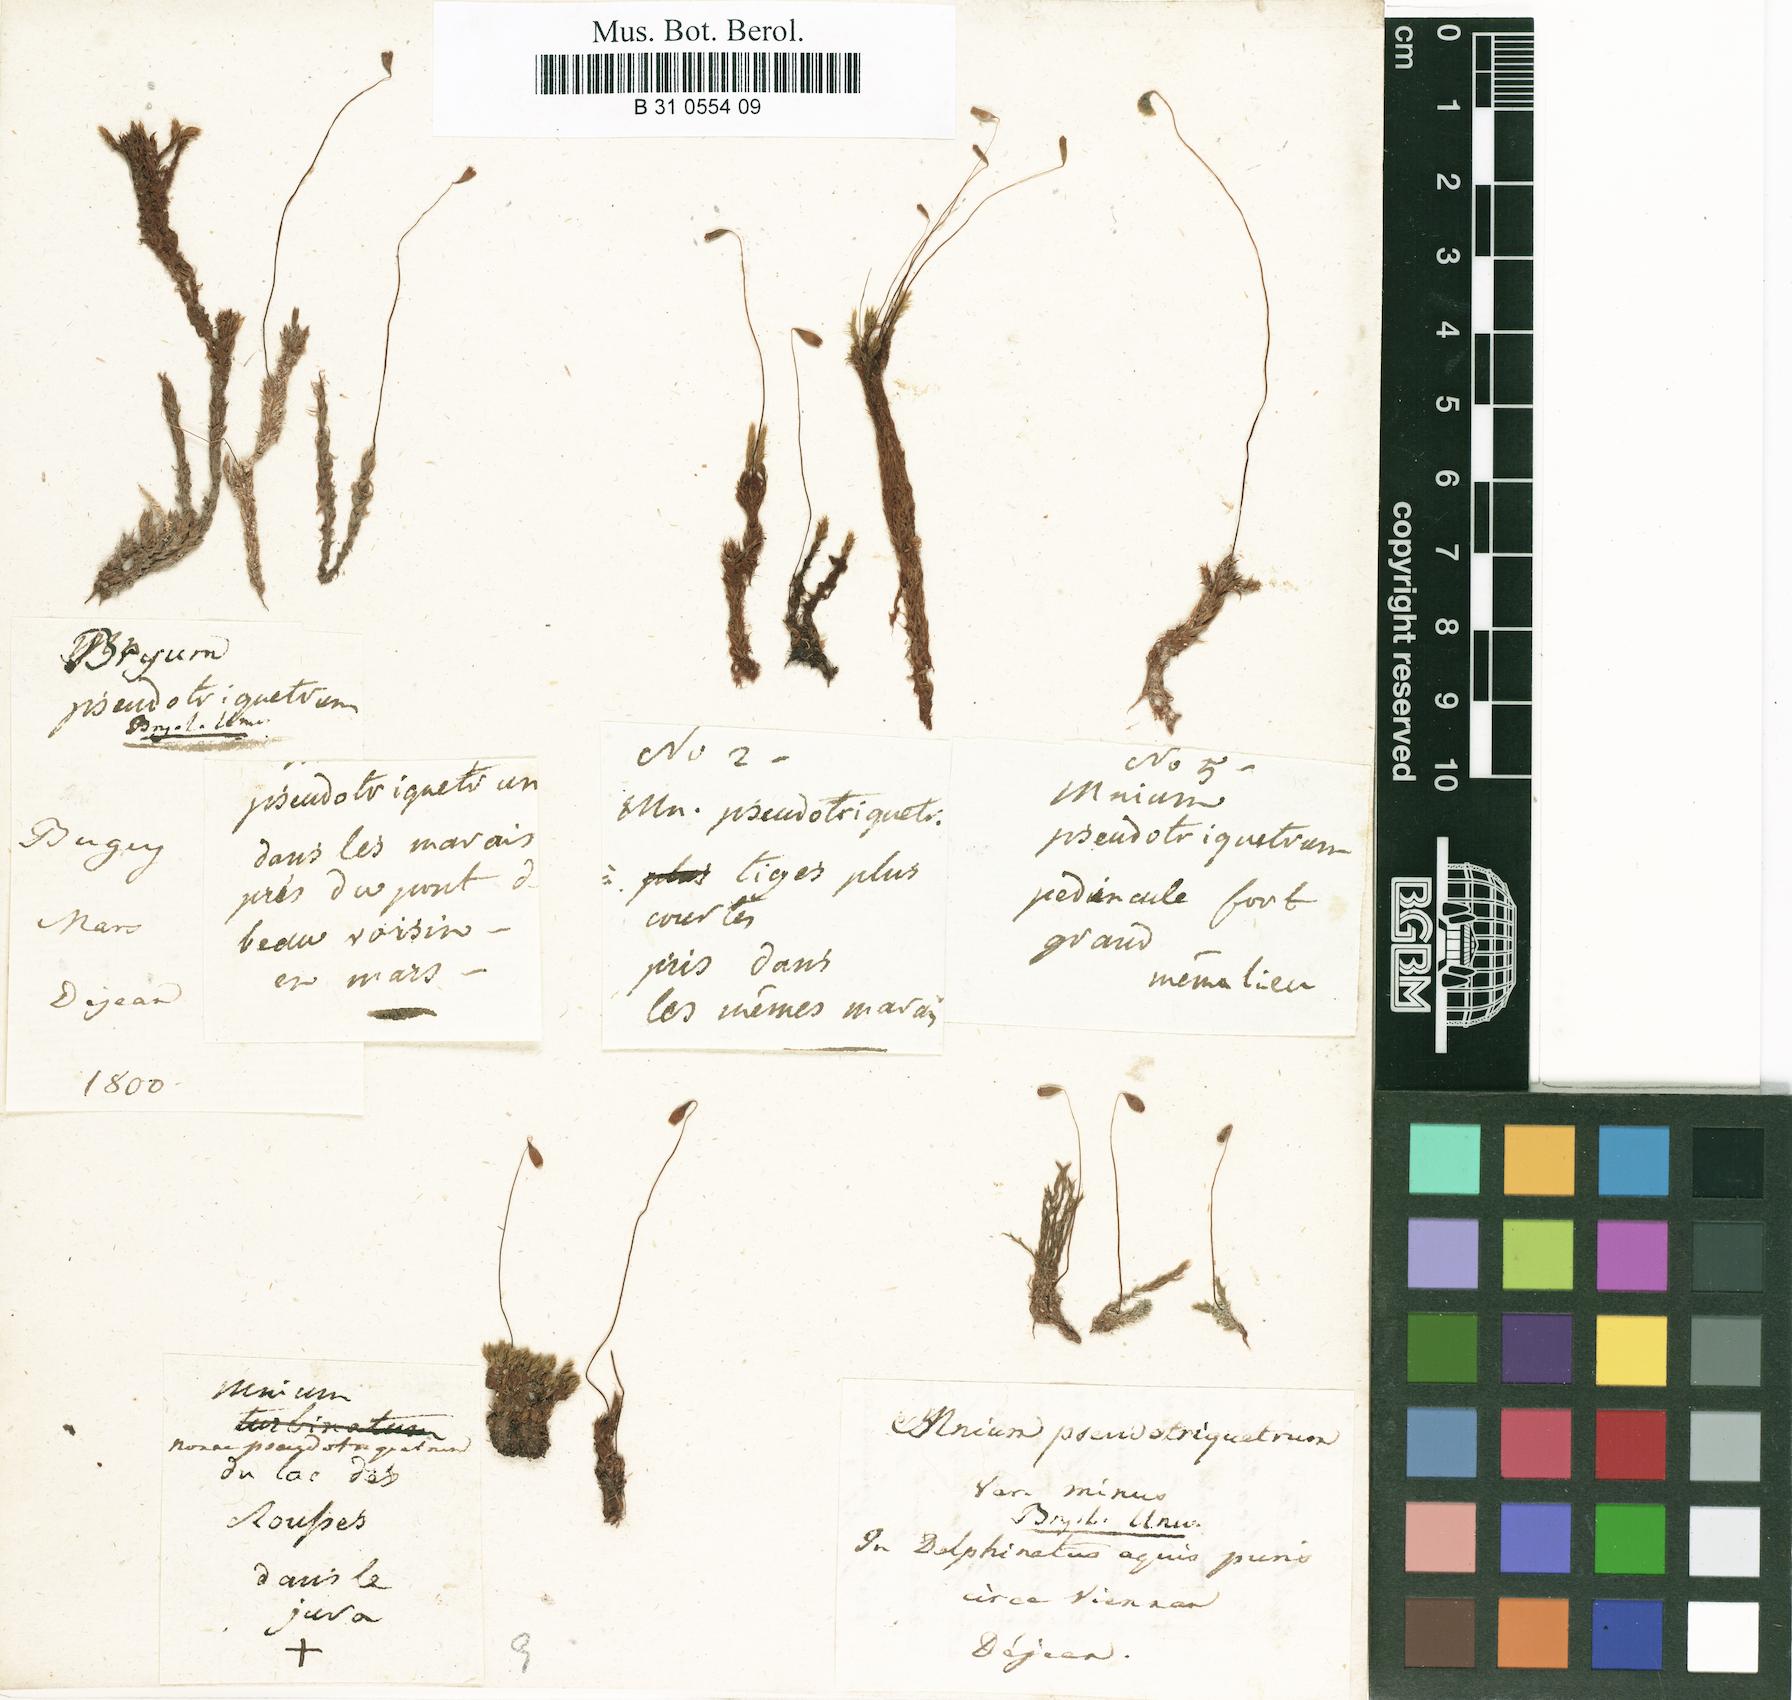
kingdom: Plantae
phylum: Bryophyta
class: Bryopsida
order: Bryales
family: Bryaceae
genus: Ptychostomum
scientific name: Ptychostomum pseudotriquetrum
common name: Long-leaved thread moss
